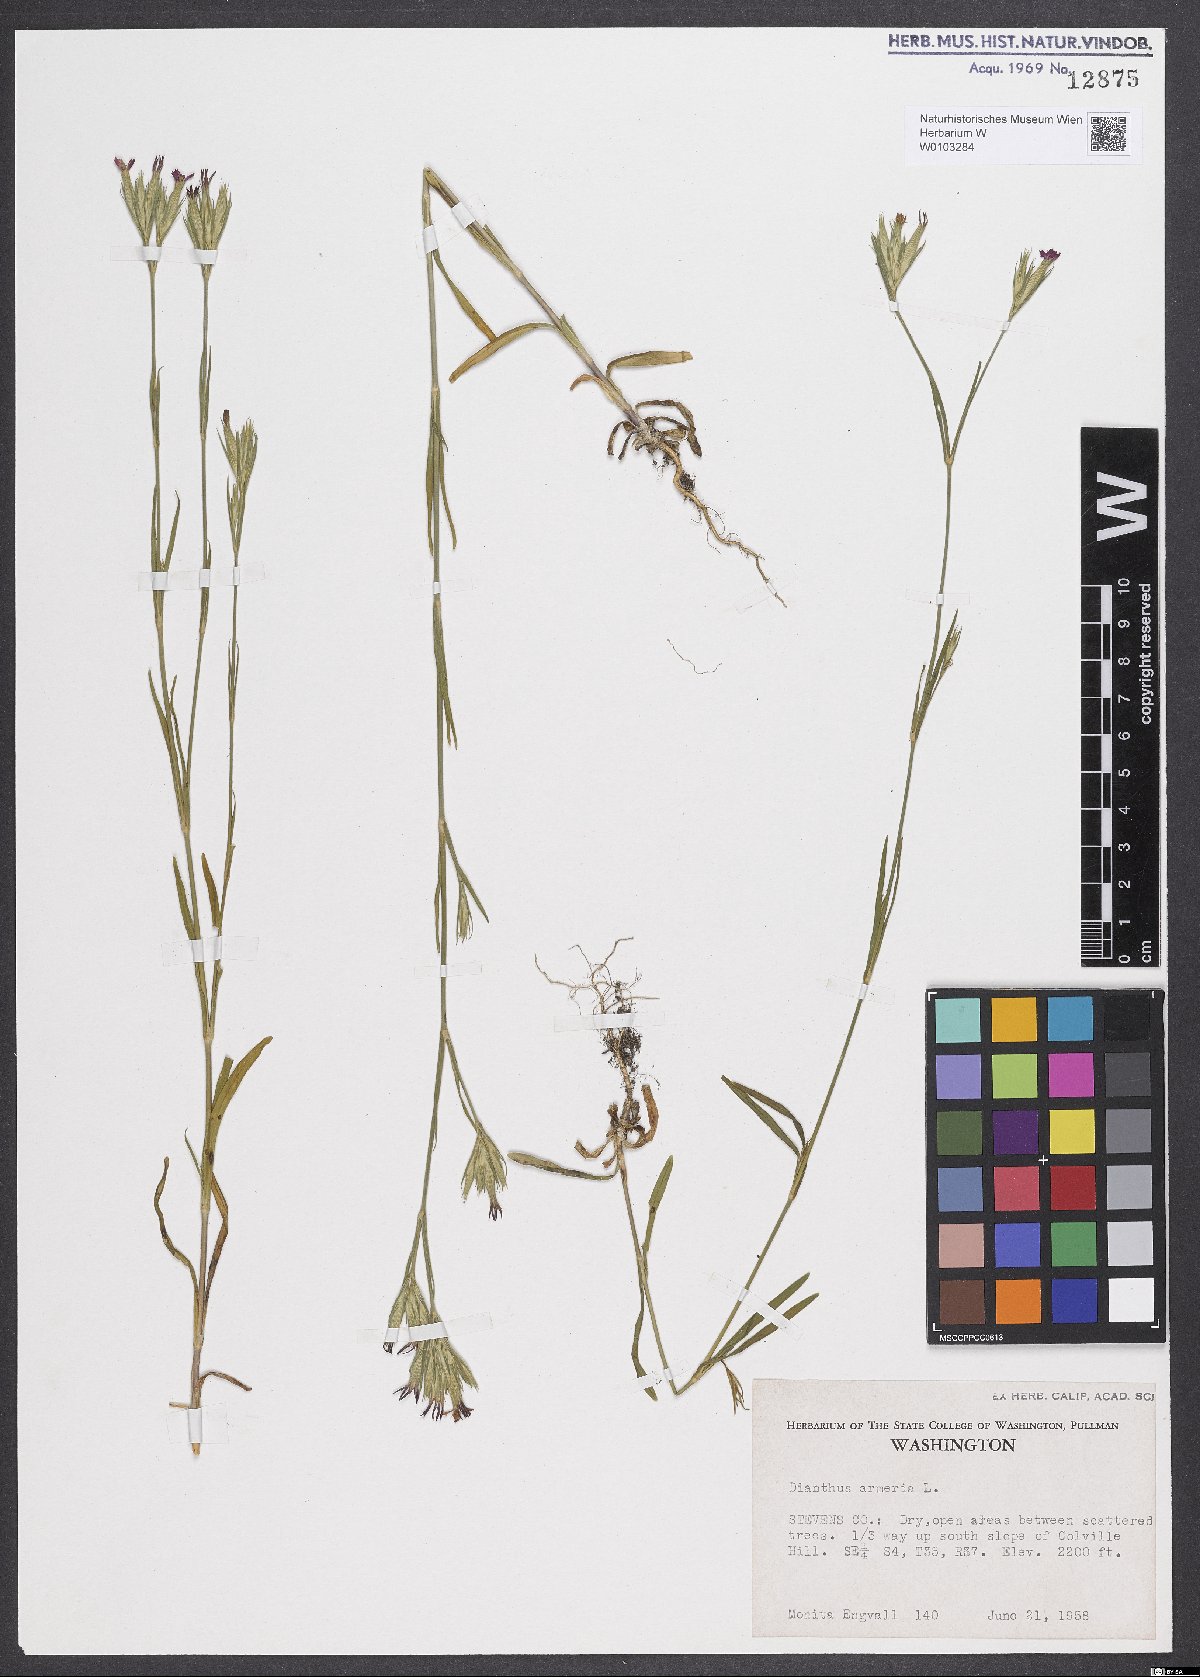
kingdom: Plantae
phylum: Tracheophyta
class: Magnoliopsida
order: Caryophyllales
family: Caryophyllaceae
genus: Dianthus
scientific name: Dianthus armeria
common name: Deptford pink
